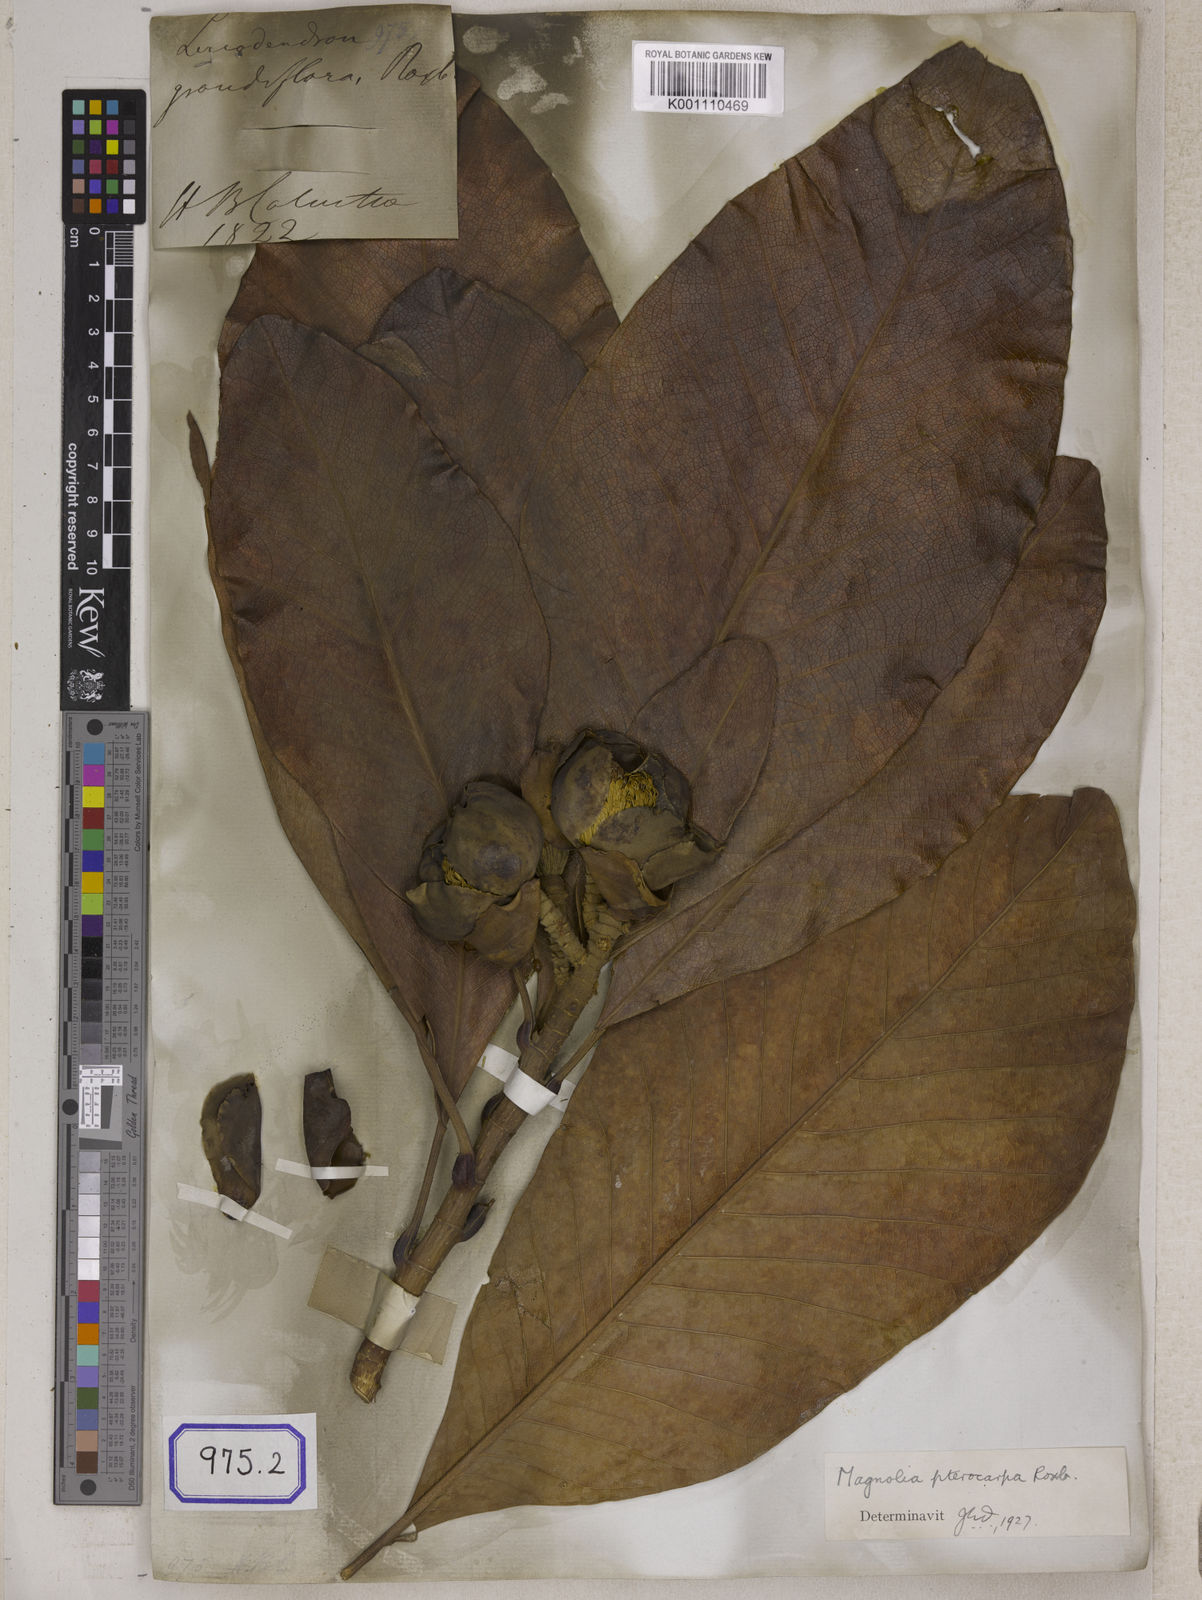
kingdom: Plantae
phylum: Tracheophyta
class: Magnoliopsida
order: Magnoliales
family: Magnoliaceae
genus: Magnolia
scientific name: Magnolia
